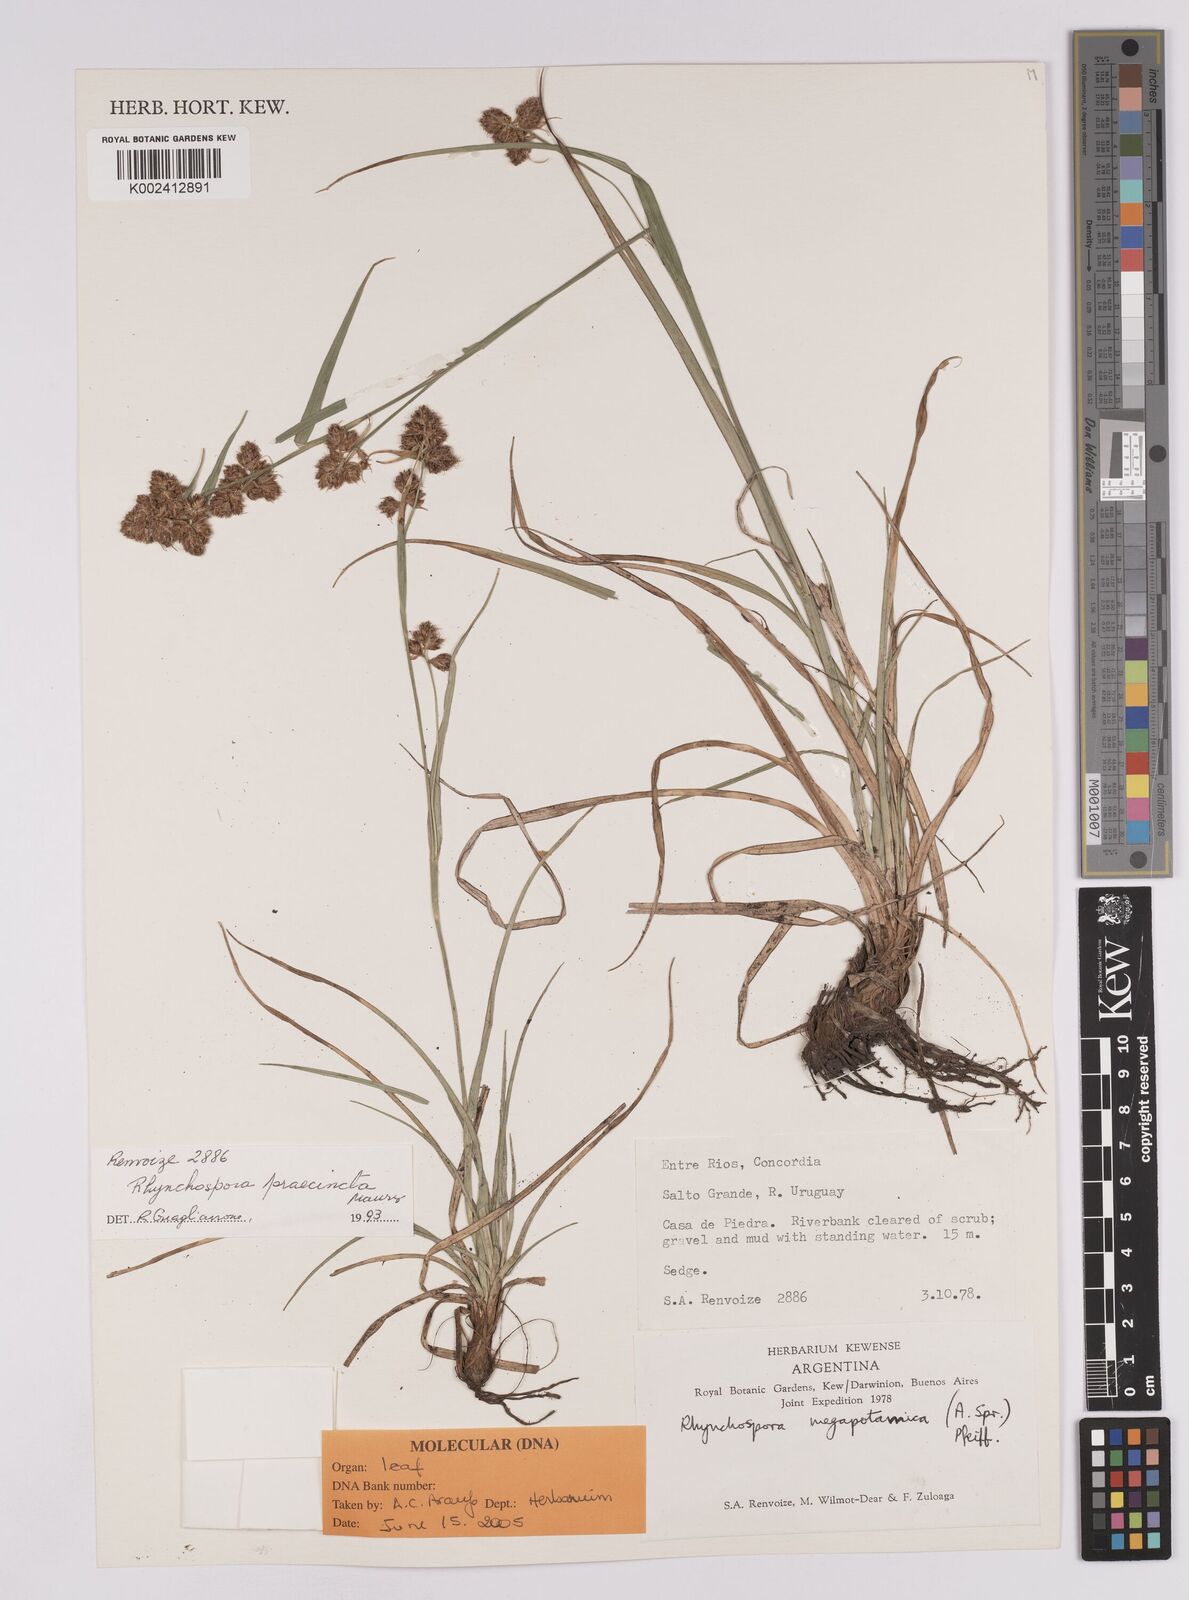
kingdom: Plantae
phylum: Tracheophyta
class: Liliopsida
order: Poales
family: Cyperaceae
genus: Rhynchospora
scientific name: Rhynchospora praecincta
